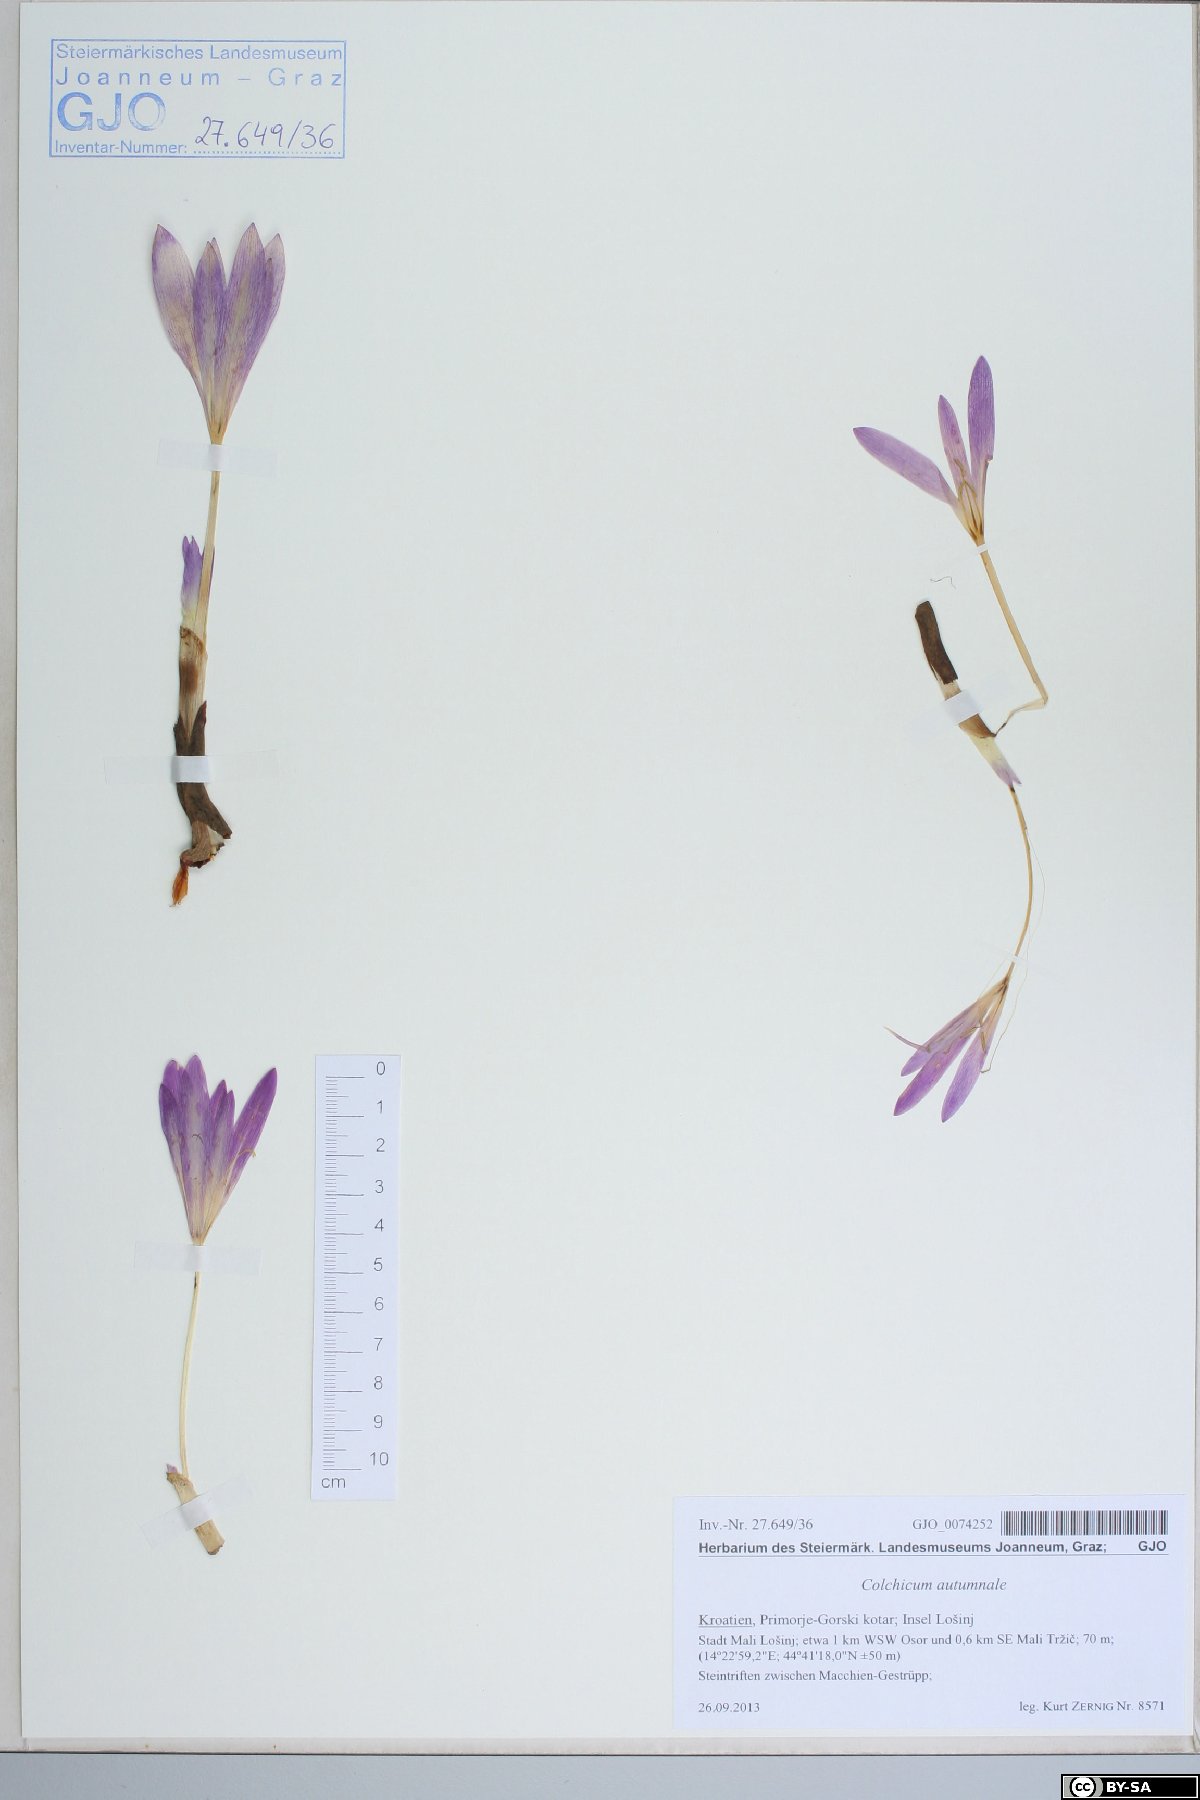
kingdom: Plantae
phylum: Tracheophyta
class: Liliopsida
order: Liliales
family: Colchicaceae
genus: Colchicum
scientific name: Colchicum autumnale
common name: Autumn crocus
